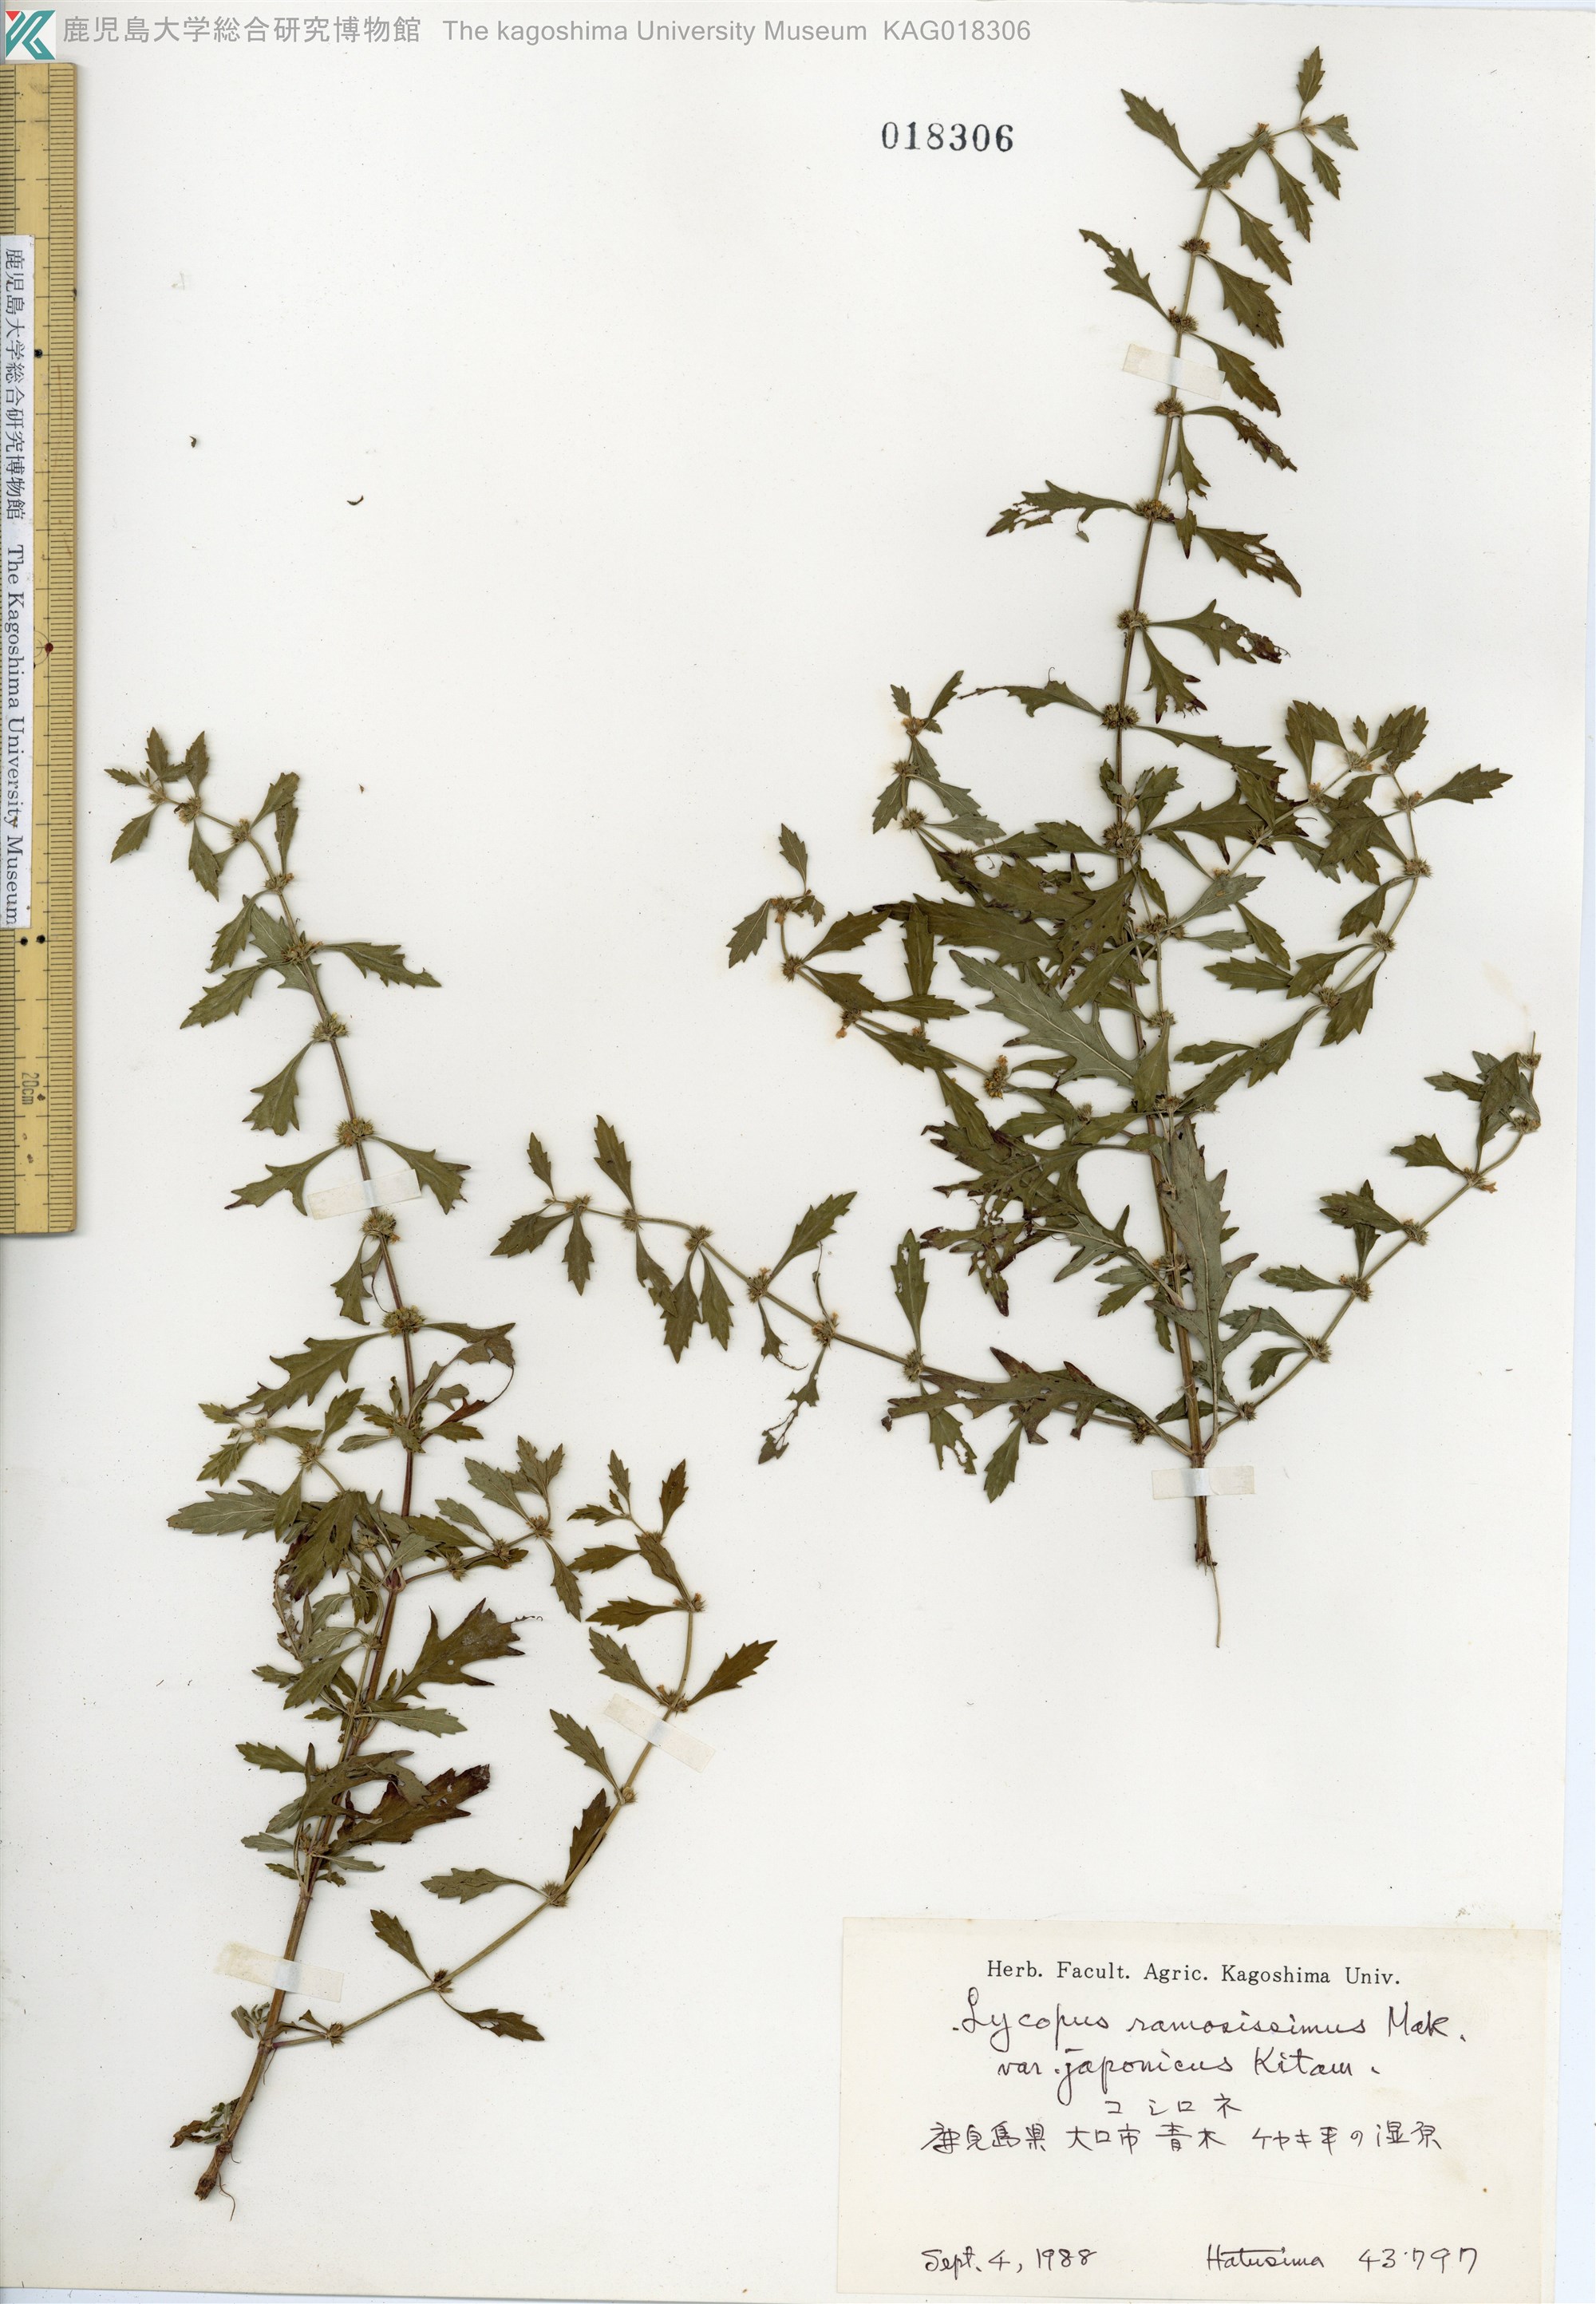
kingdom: Plantae
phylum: Tracheophyta
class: Magnoliopsida
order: Lamiales
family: Lamiaceae
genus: Lycopus
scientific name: Lycopus cavaleriei
